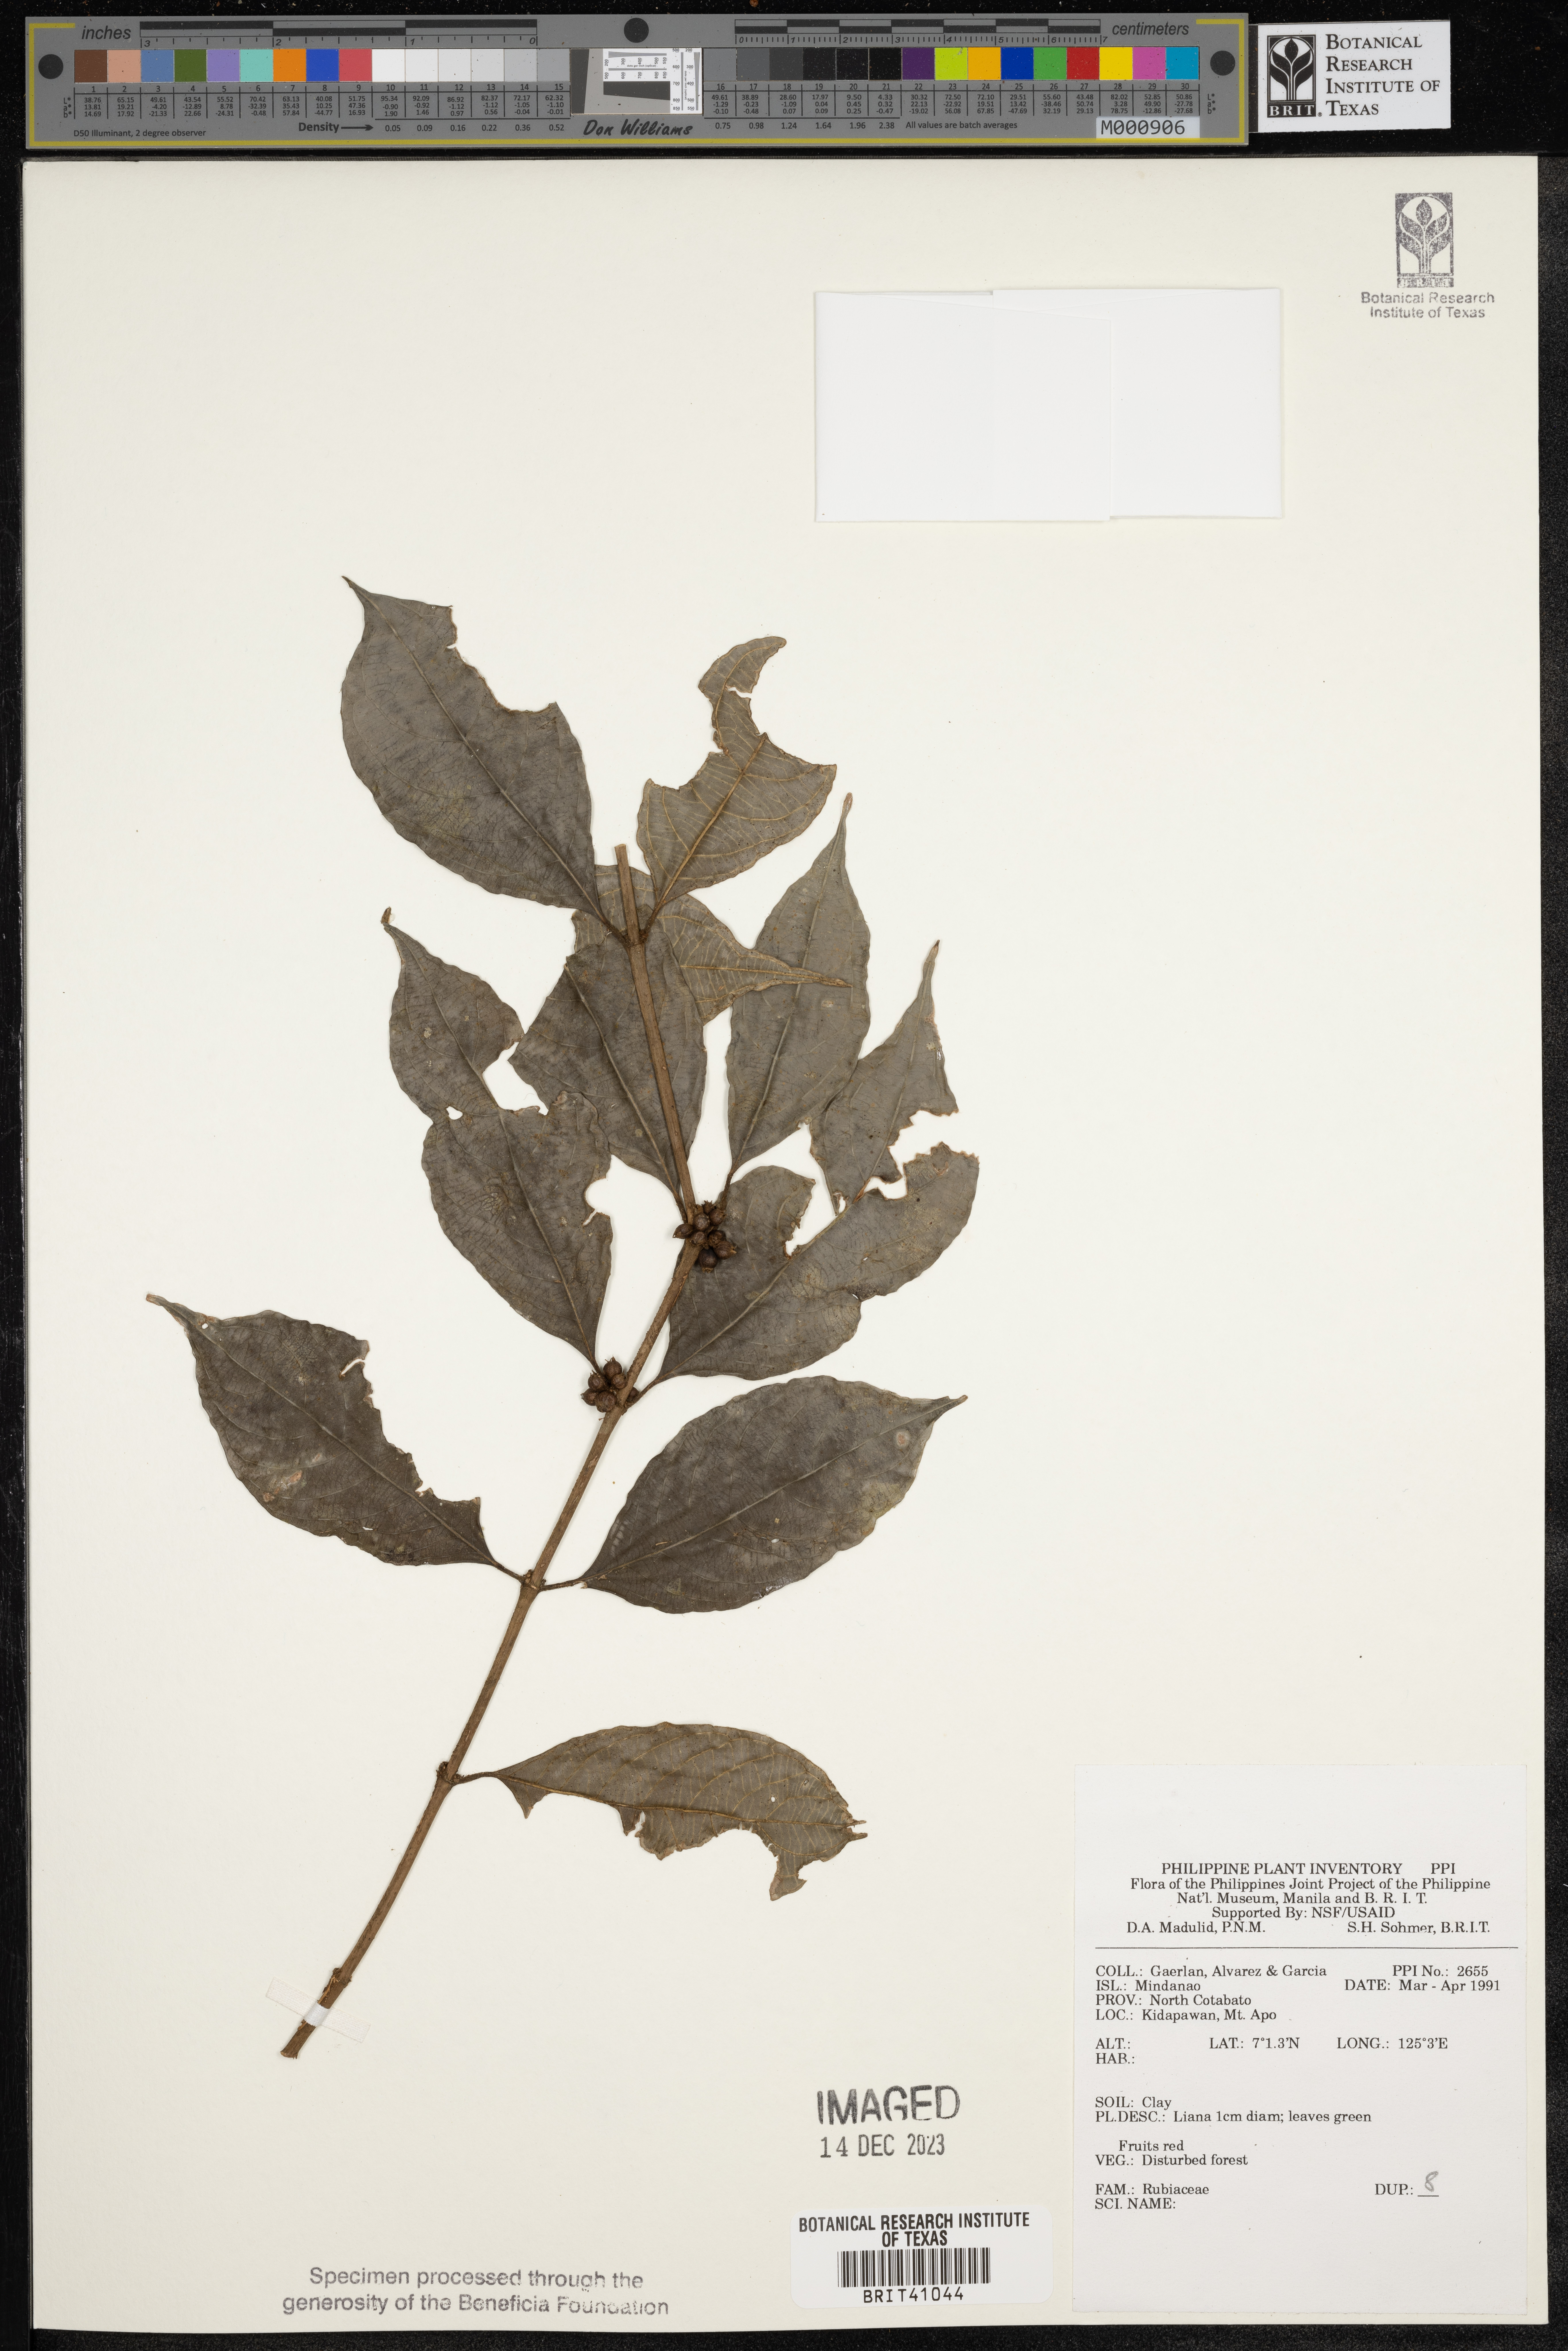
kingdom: Plantae
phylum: Tracheophyta
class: Magnoliopsida
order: Gentianales
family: Rubiaceae
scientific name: Rubiaceae
